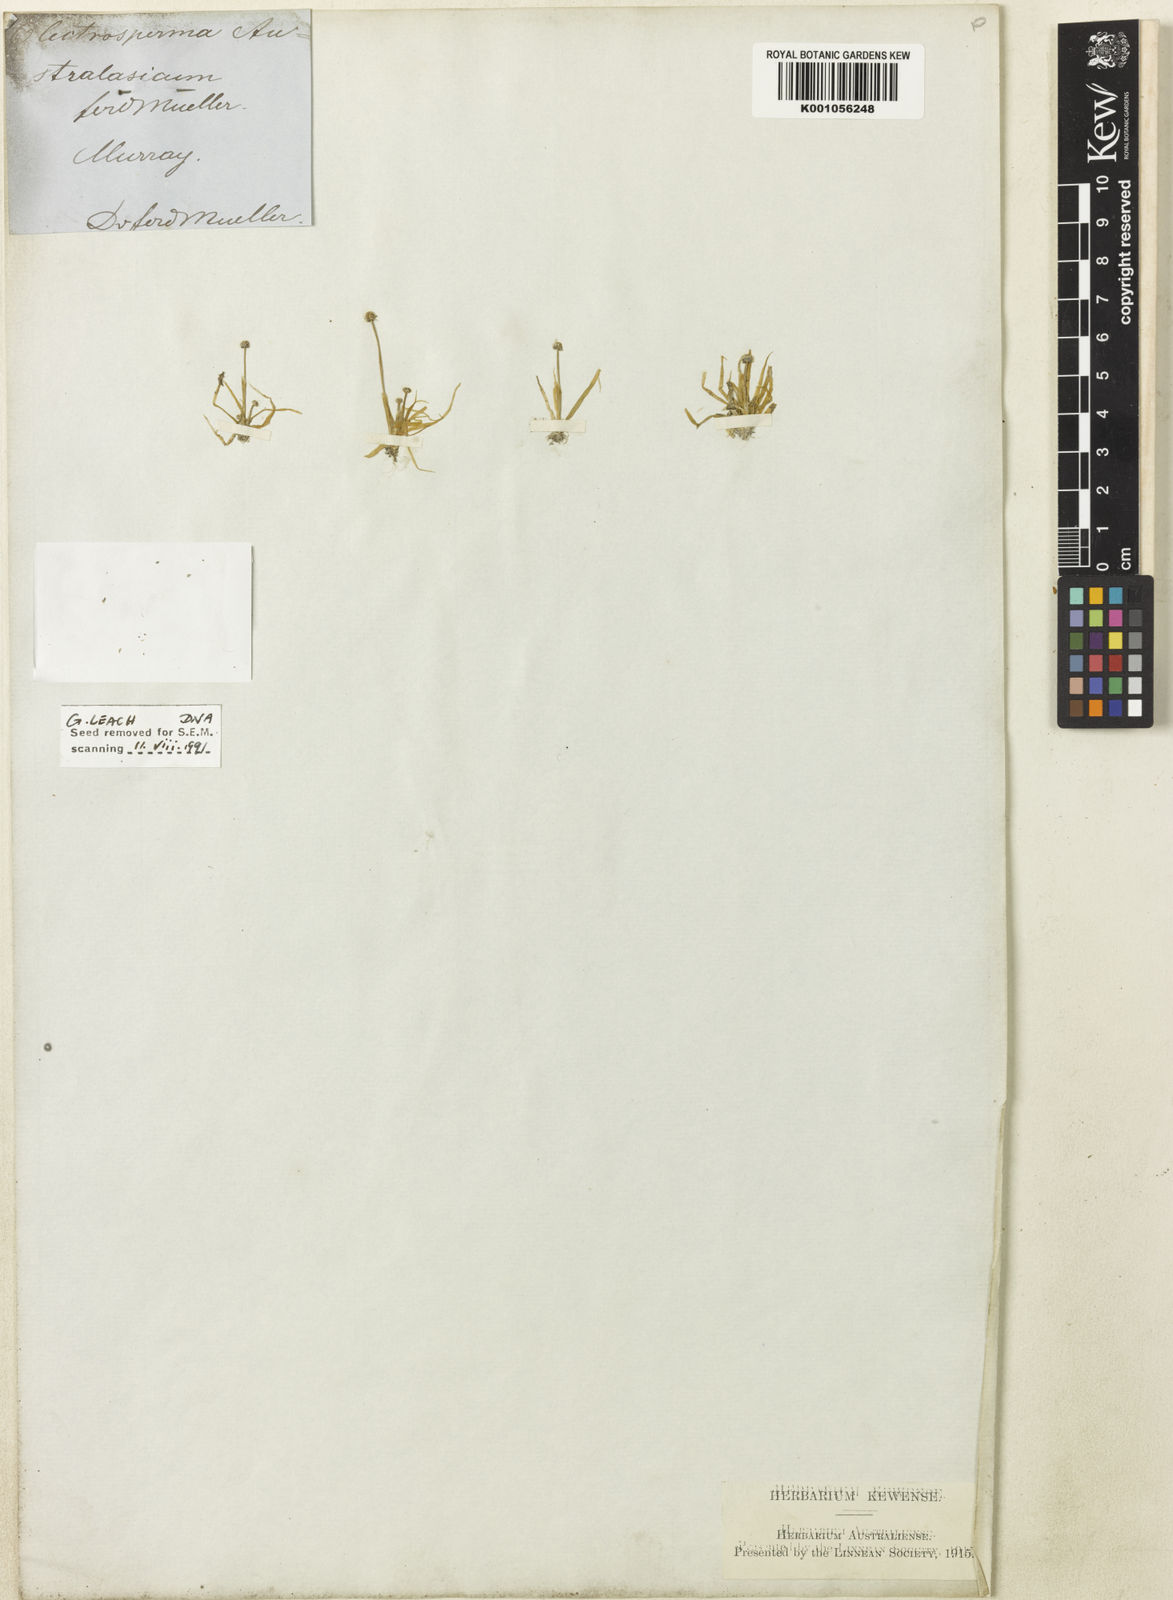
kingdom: Plantae
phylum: Tracheophyta
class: Liliopsida
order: Poales
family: Eriocaulaceae
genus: Eriocaulon
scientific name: Eriocaulon
